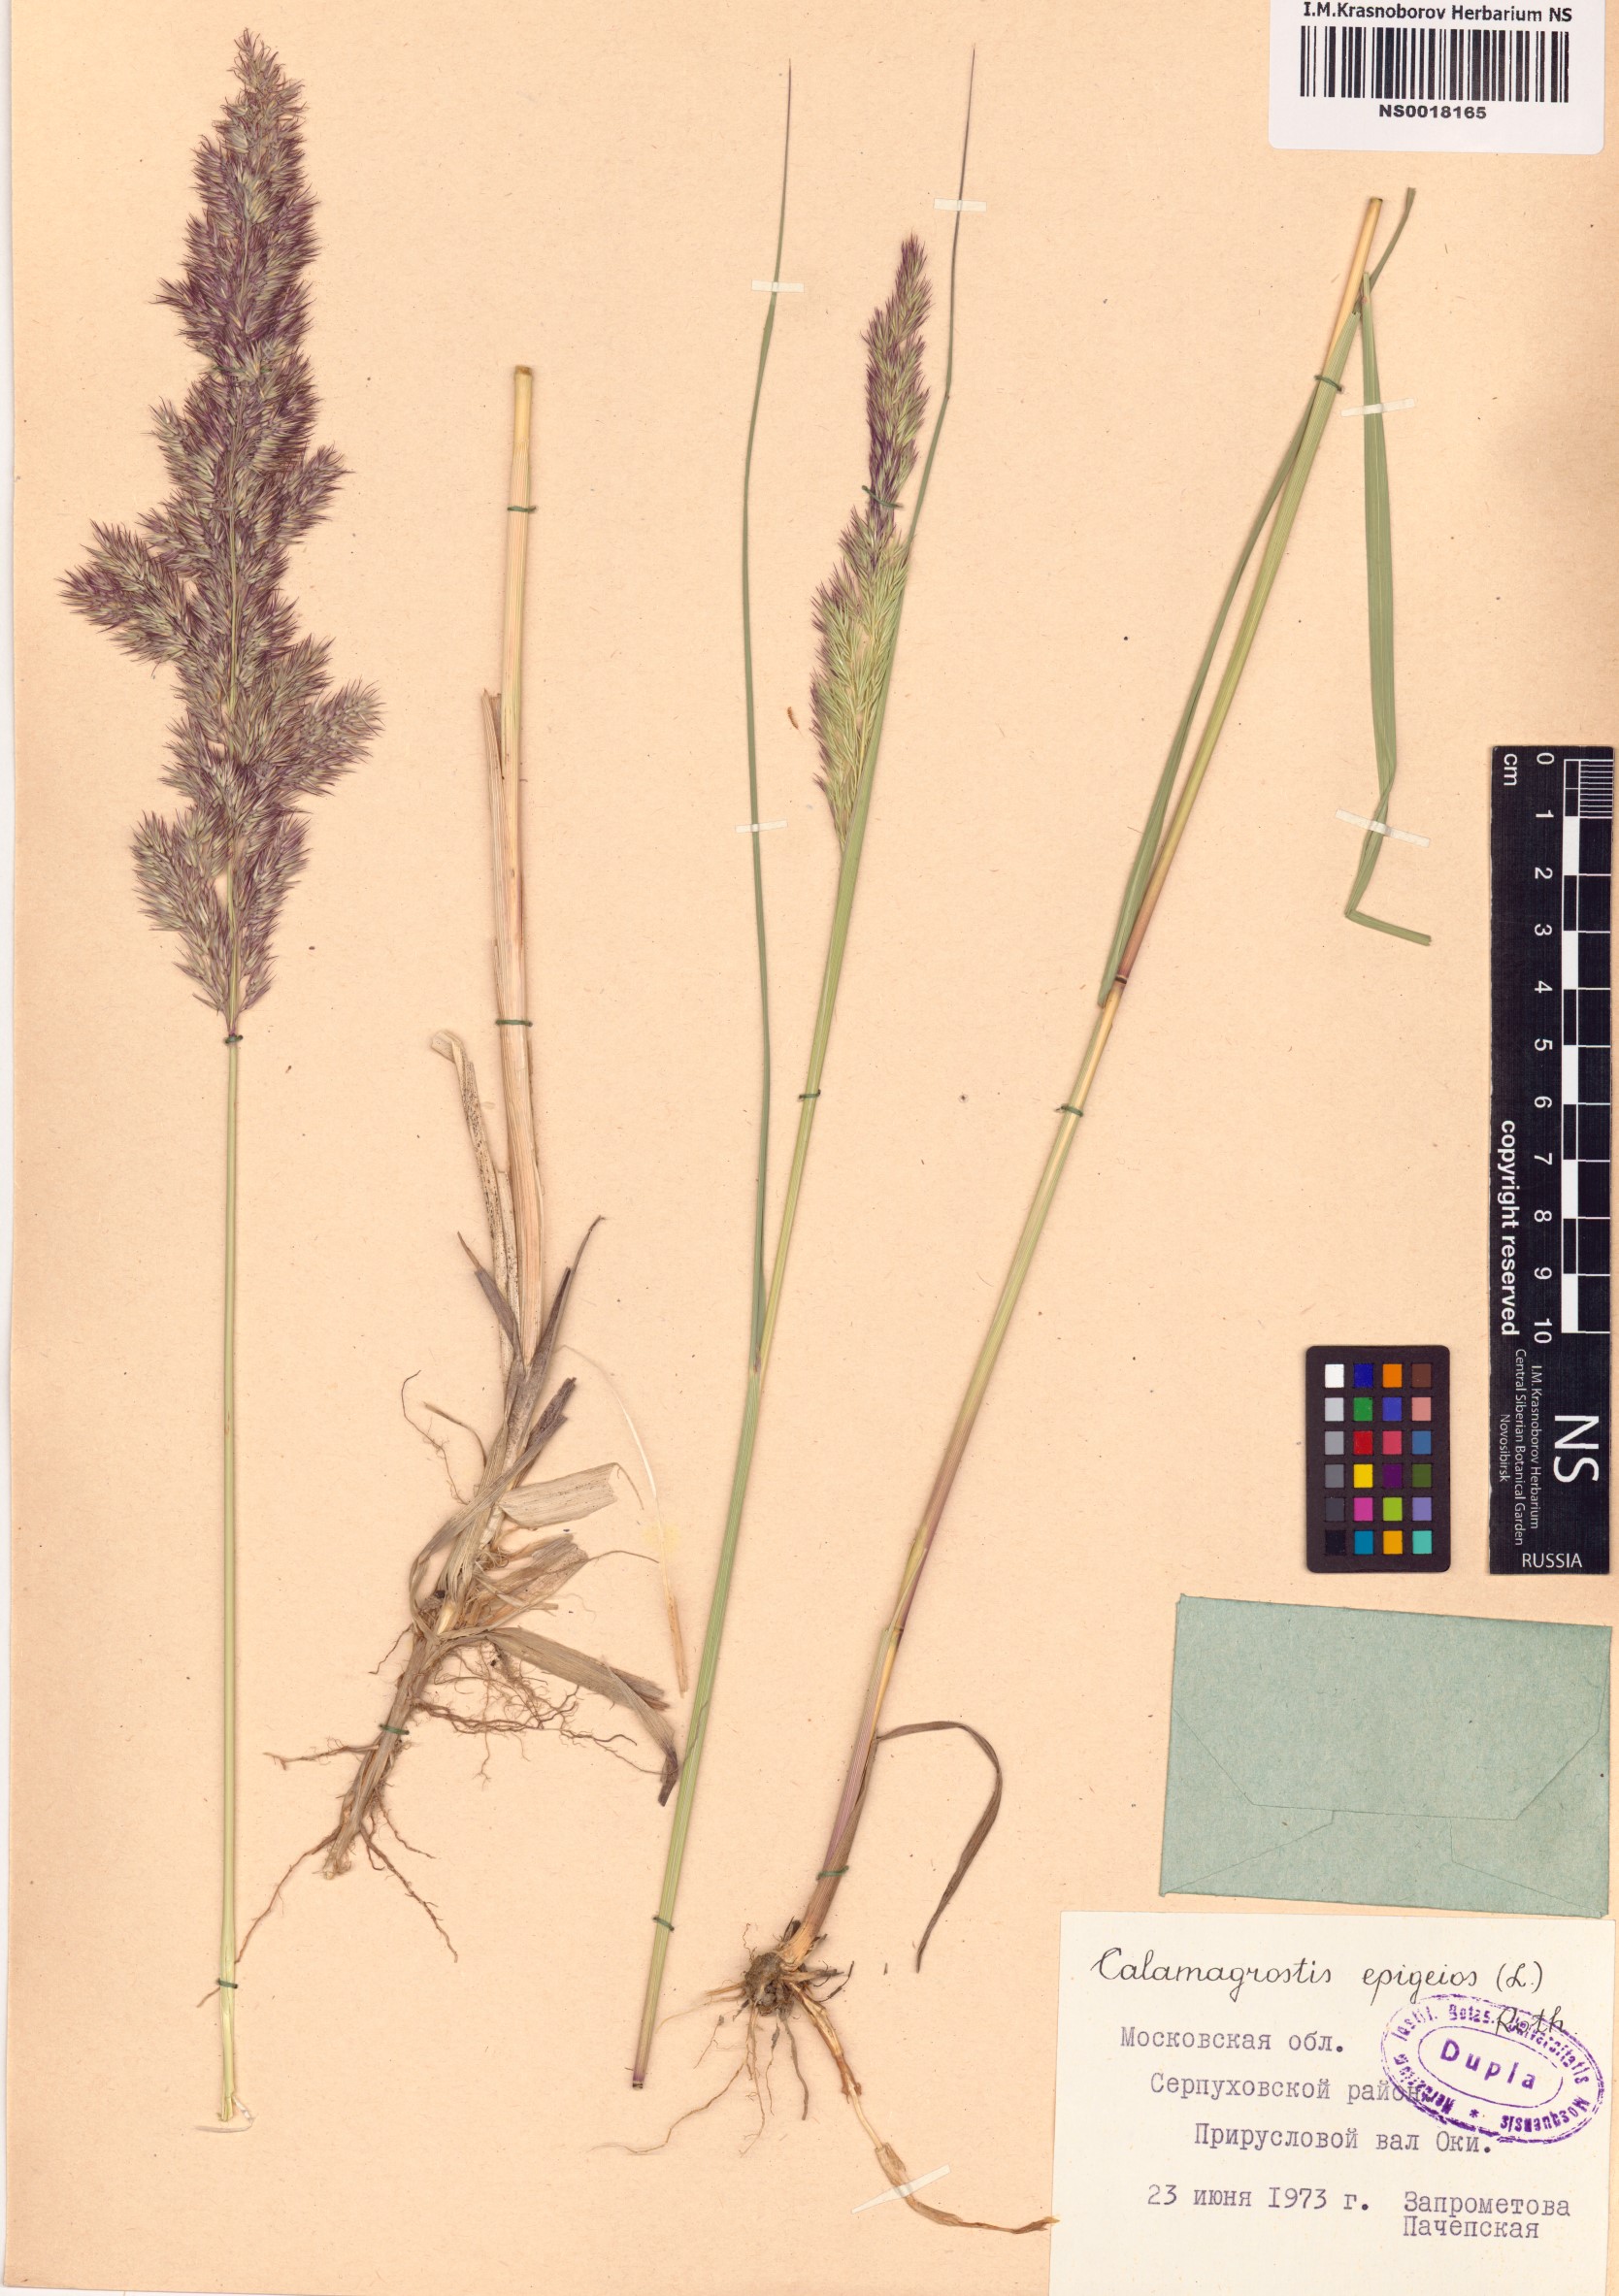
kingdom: Plantae
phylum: Tracheophyta
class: Liliopsida
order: Poales
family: Poaceae
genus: Calamagrostis
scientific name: Calamagrostis epigejos
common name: Wood small-reed
